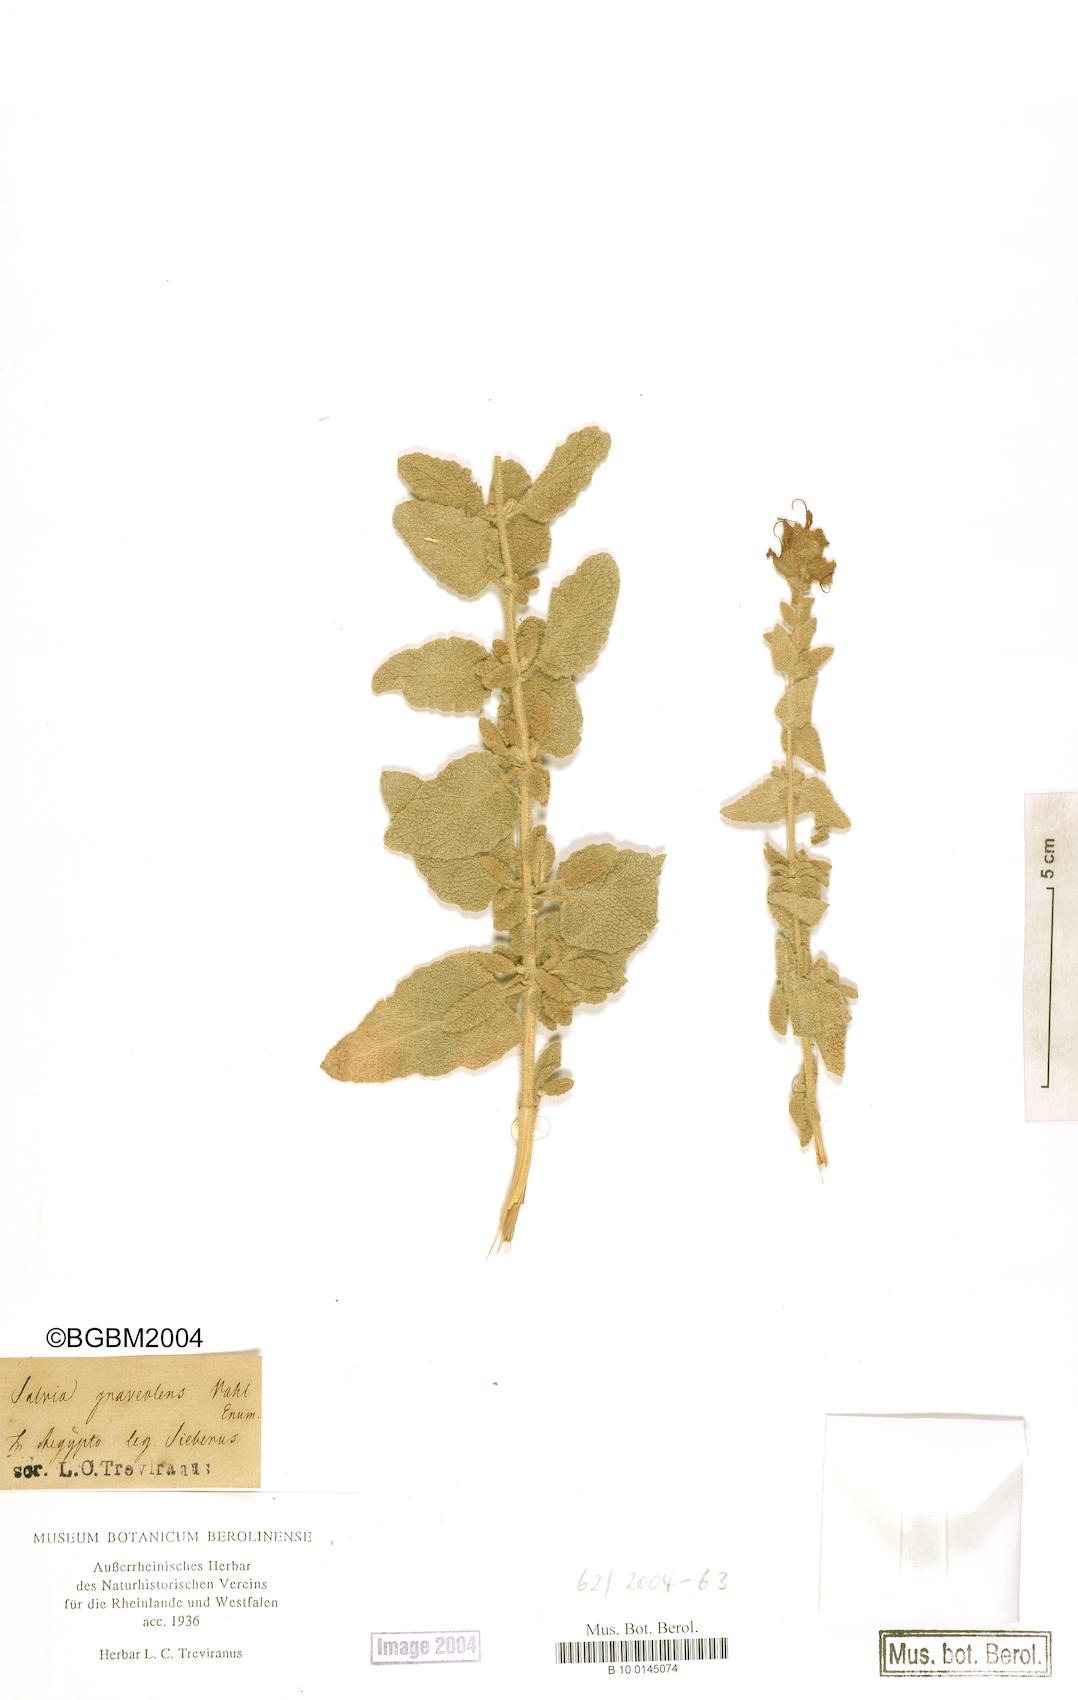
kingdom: Plantae
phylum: Tracheophyta
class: Magnoliopsida
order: Lamiales
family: Lamiaceae
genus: Salvia
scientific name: Salvia dominica
